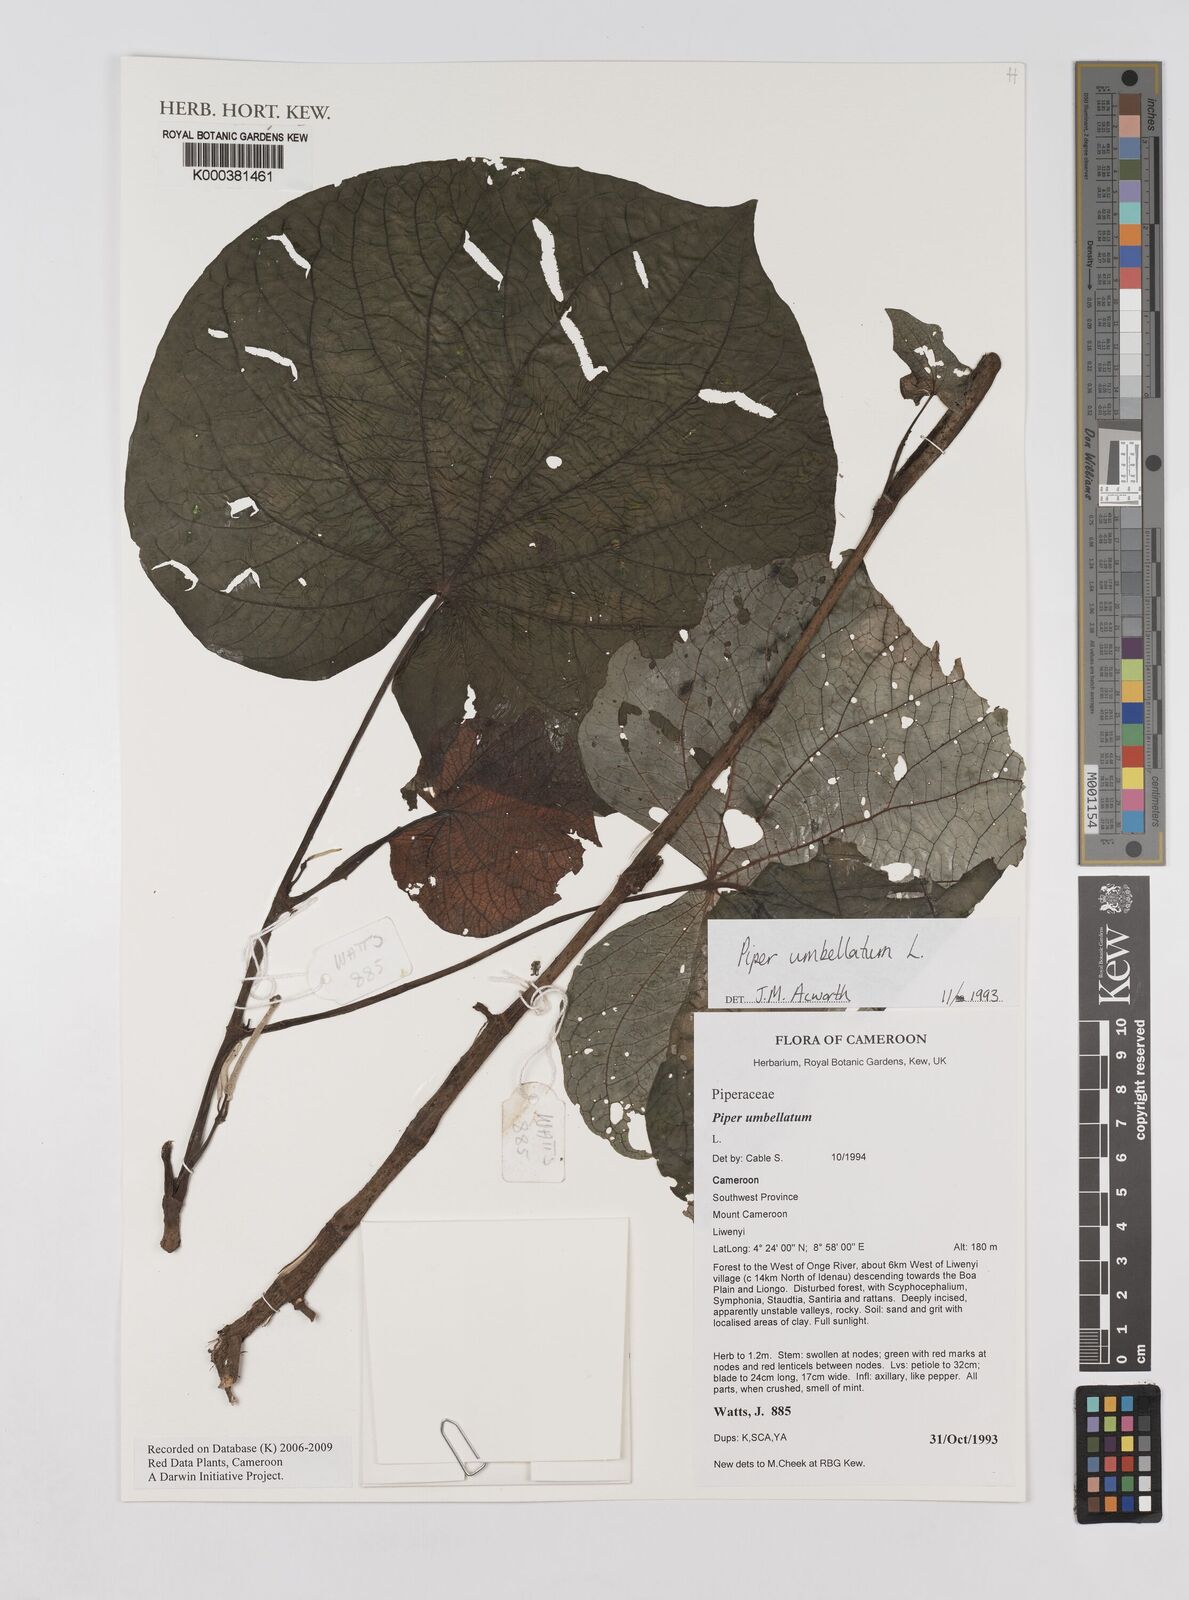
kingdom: Plantae
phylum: Tracheophyta
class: Magnoliopsida
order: Piperales
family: Piperaceae
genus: Piper
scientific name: Piper umbellatum
